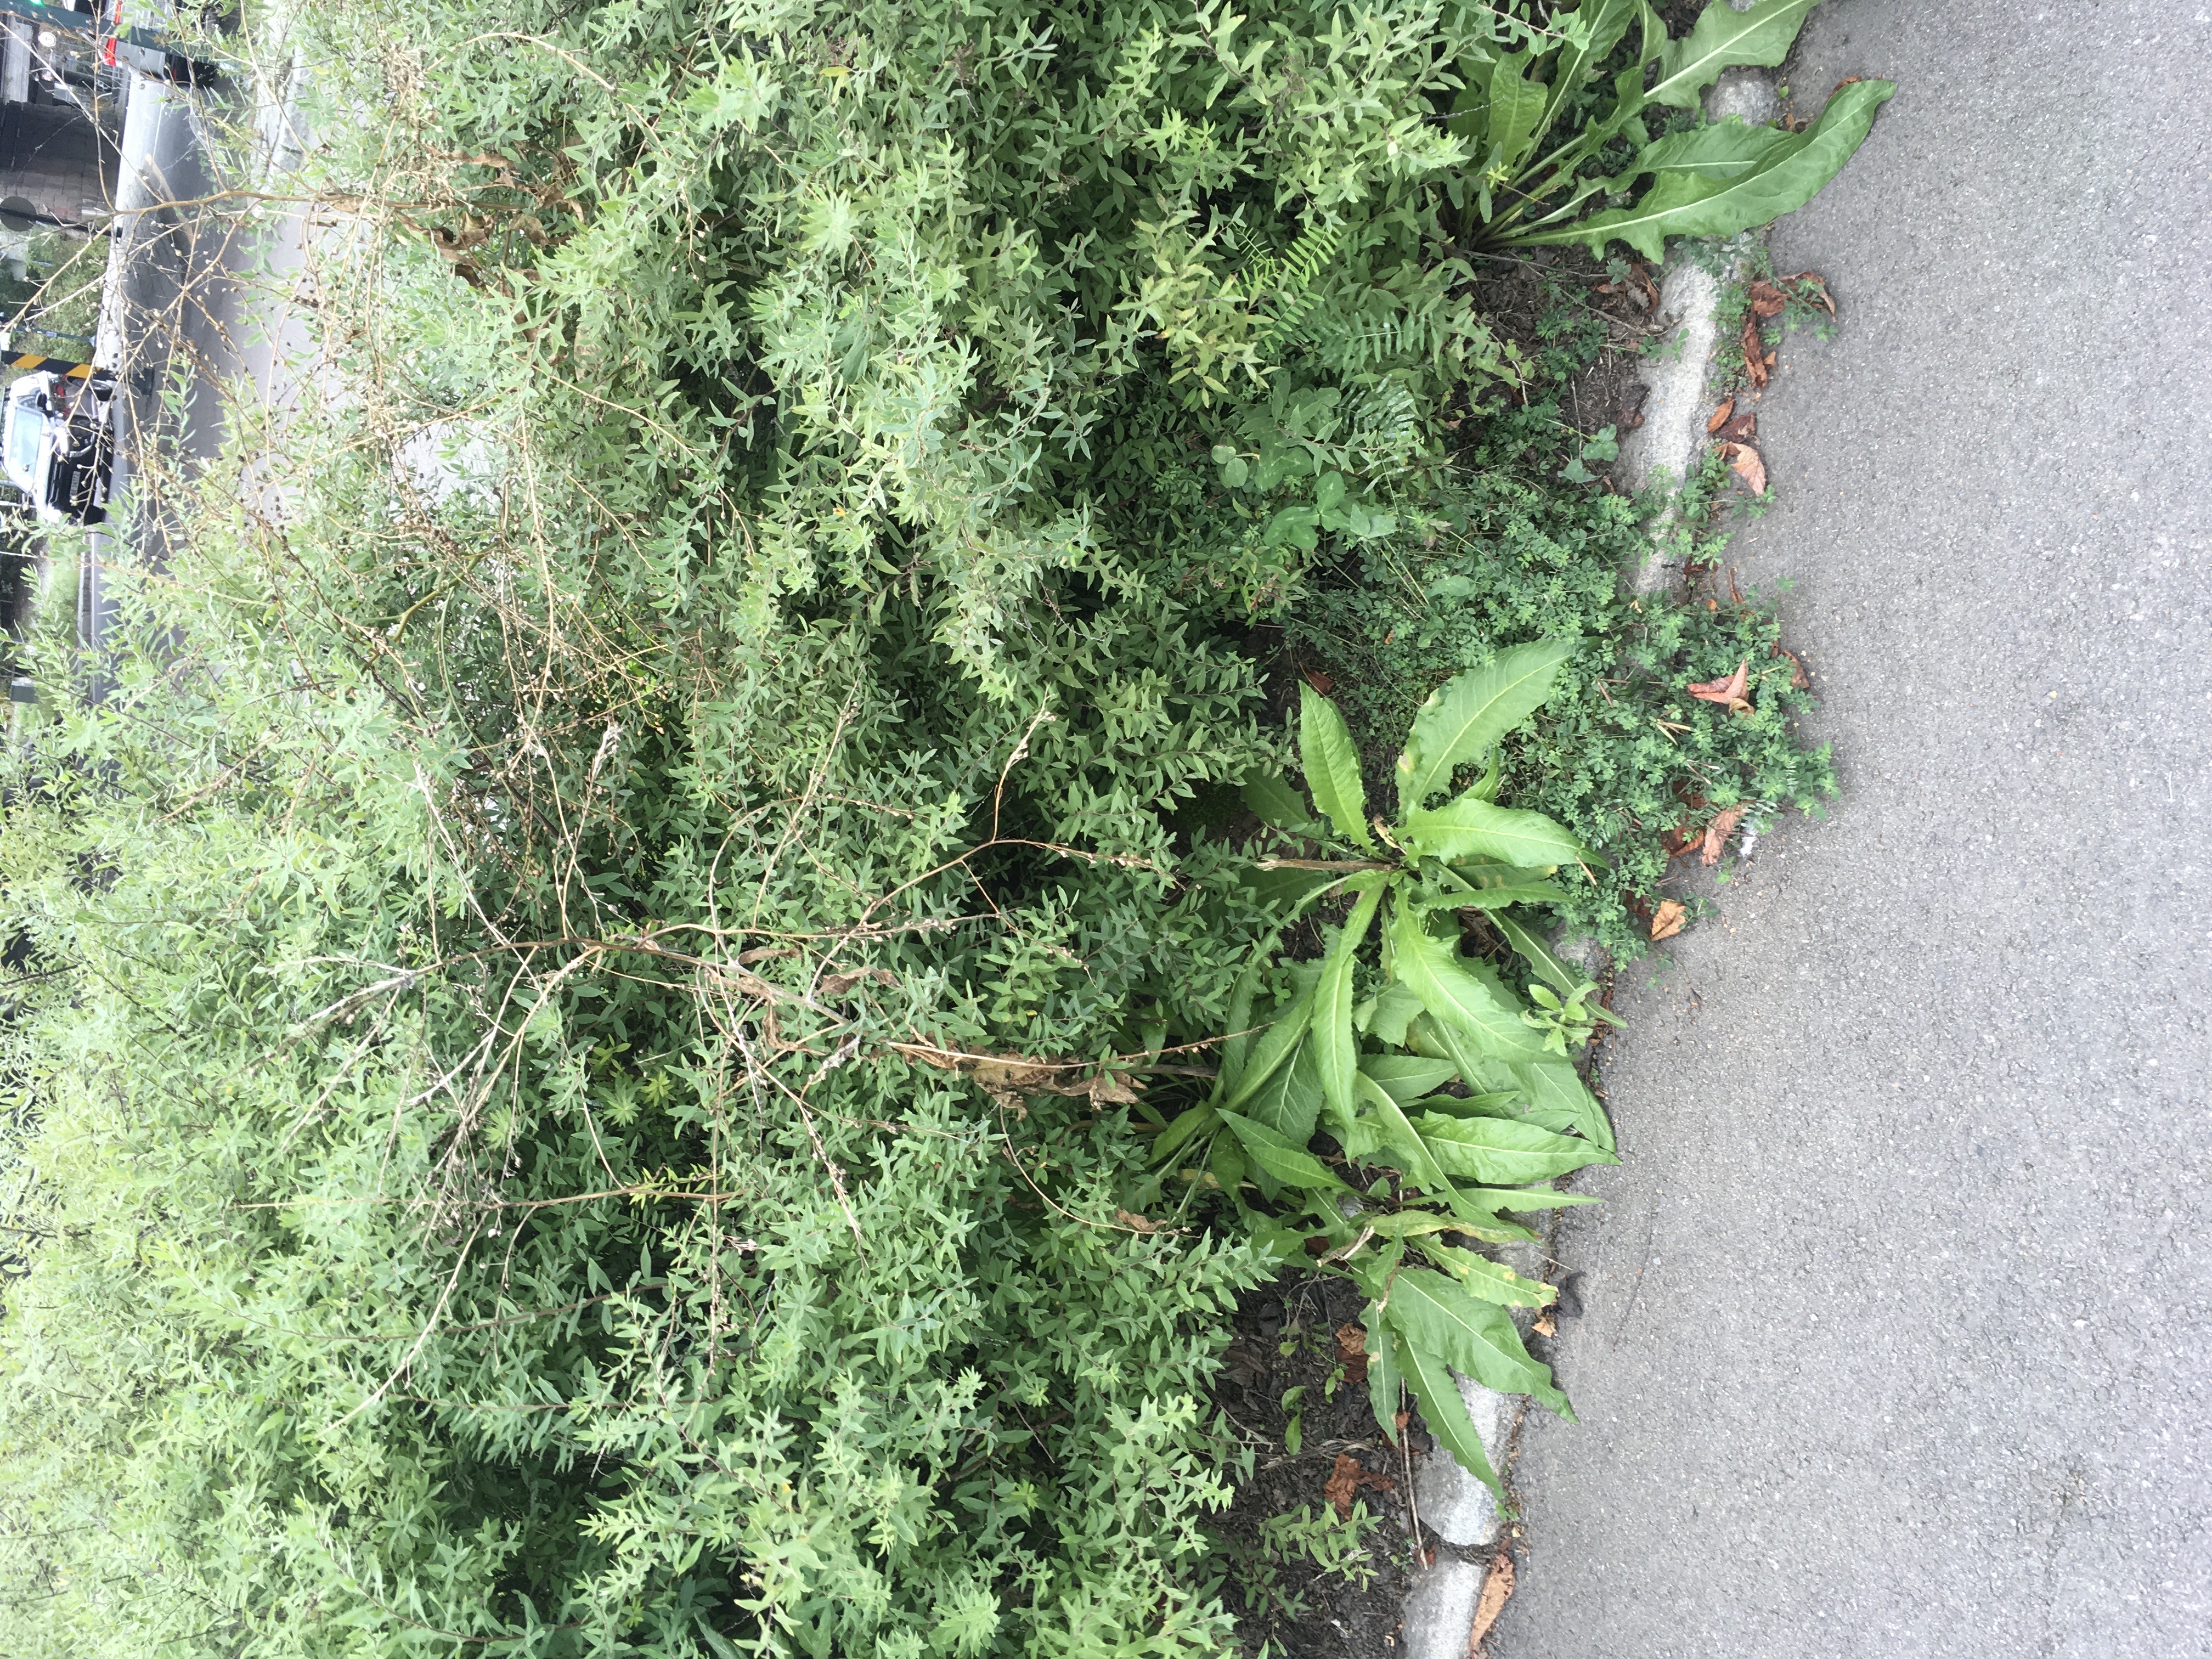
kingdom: Plantae
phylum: Tracheophyta
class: Magnoliopsida
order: Brassicales
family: Brassicaceae
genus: Bunias
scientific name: Bunias orientalis
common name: russekål
